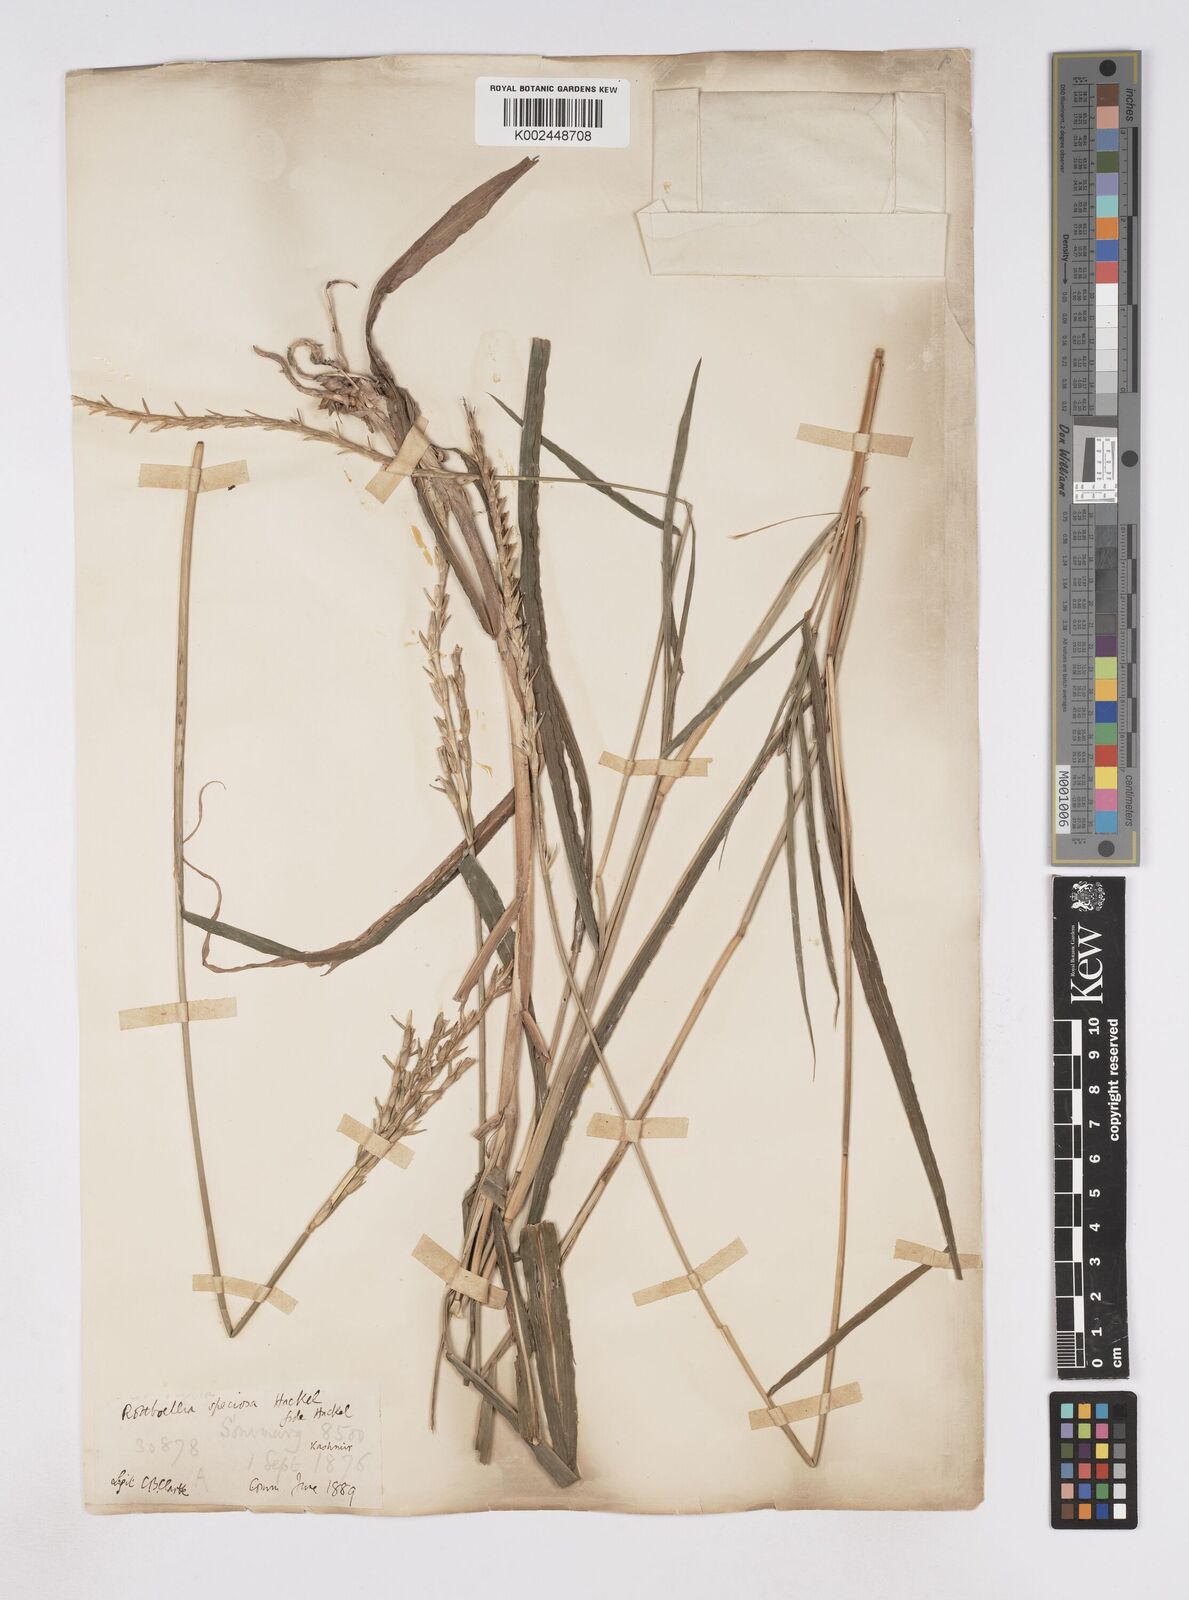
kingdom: Plantae
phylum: Tracheophyta
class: Liliopsida
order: Poales
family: Poaceae
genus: Phacelurus
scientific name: Phacelurus speciosus
